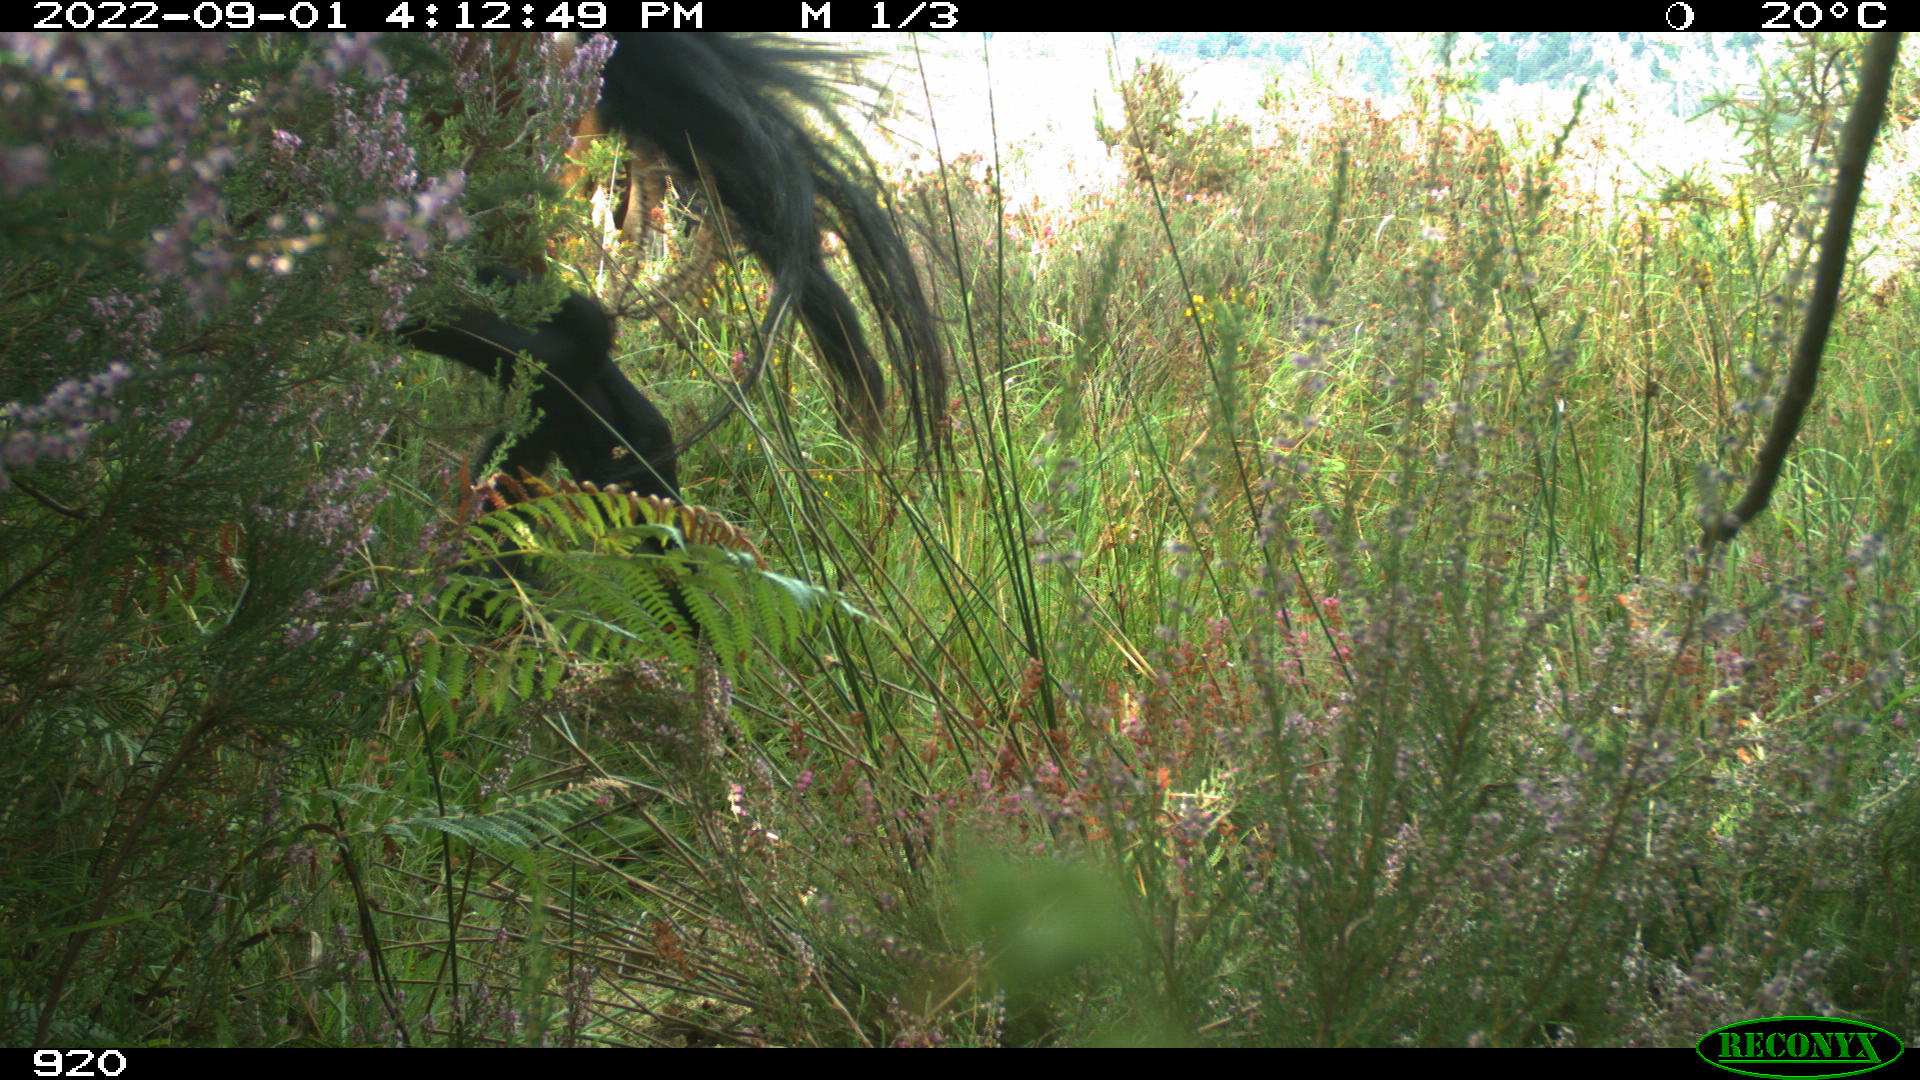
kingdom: Animalia
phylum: Chordata
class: Mammalia
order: Perissodactyla
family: Equidae
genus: Equus
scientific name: Equus caballus
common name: Horse
